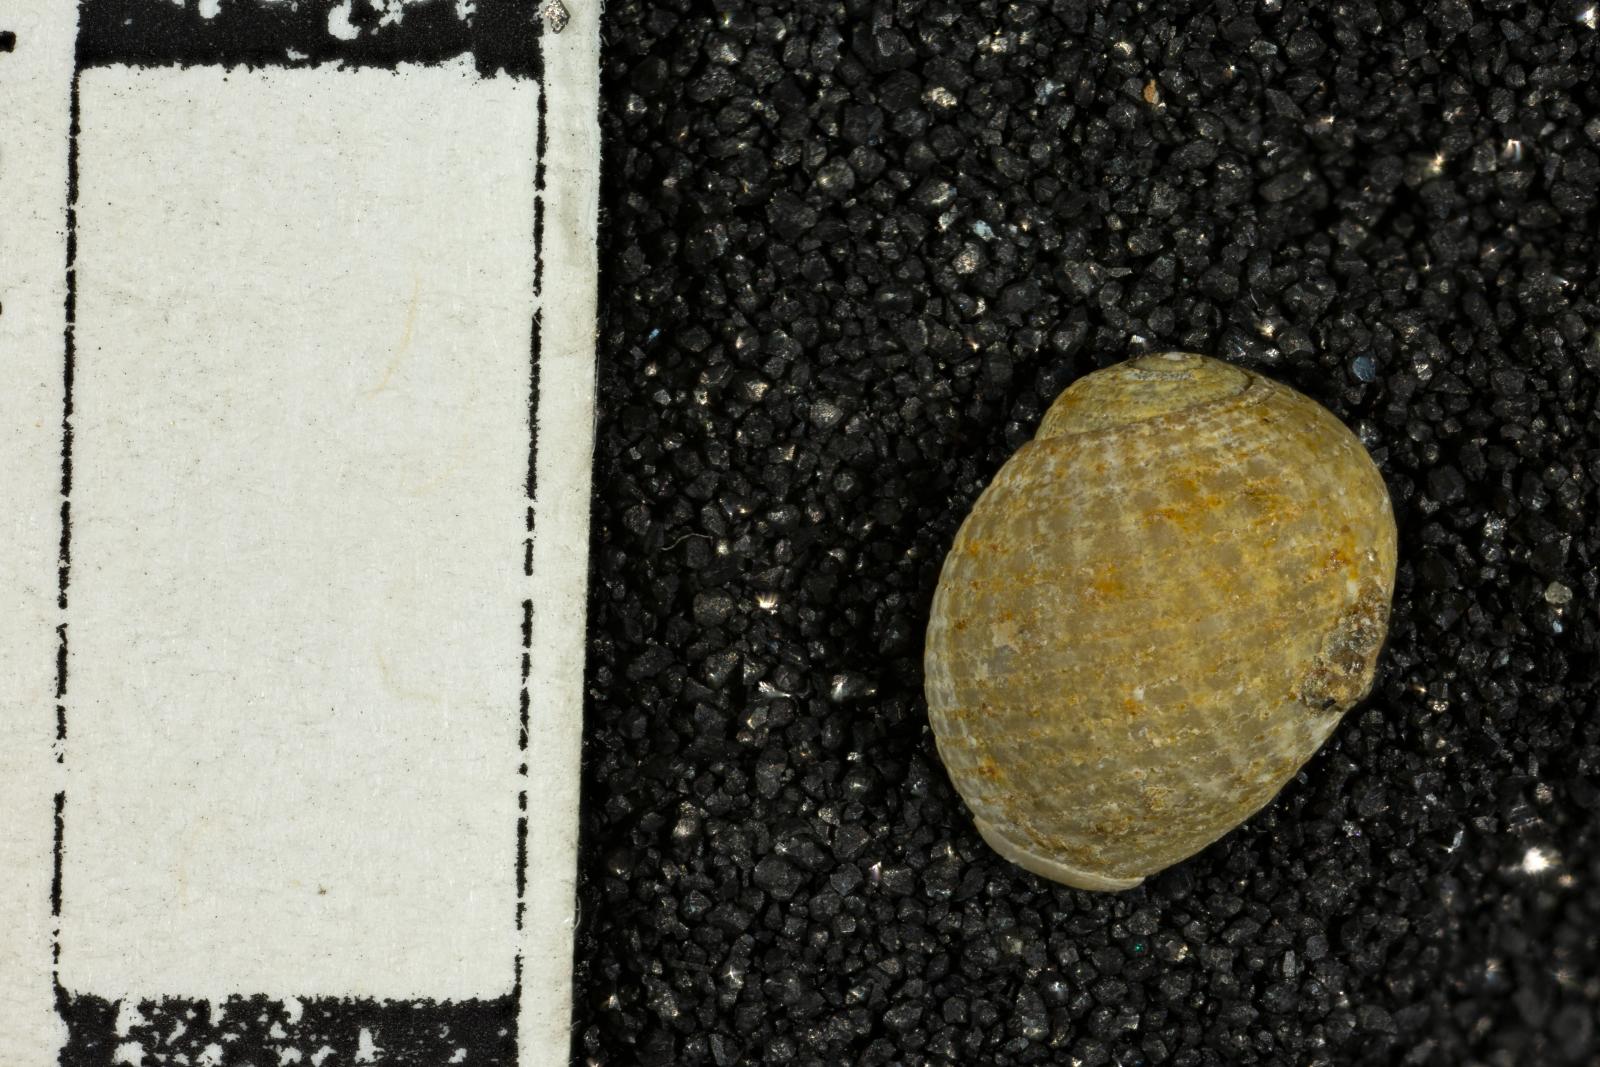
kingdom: Animalia
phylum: Mollusca
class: Gastropoda
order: Cephalaspidea
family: Ringiculidae
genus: Ringiculopsis
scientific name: Ringiculopsis Ringicula hesperiae
